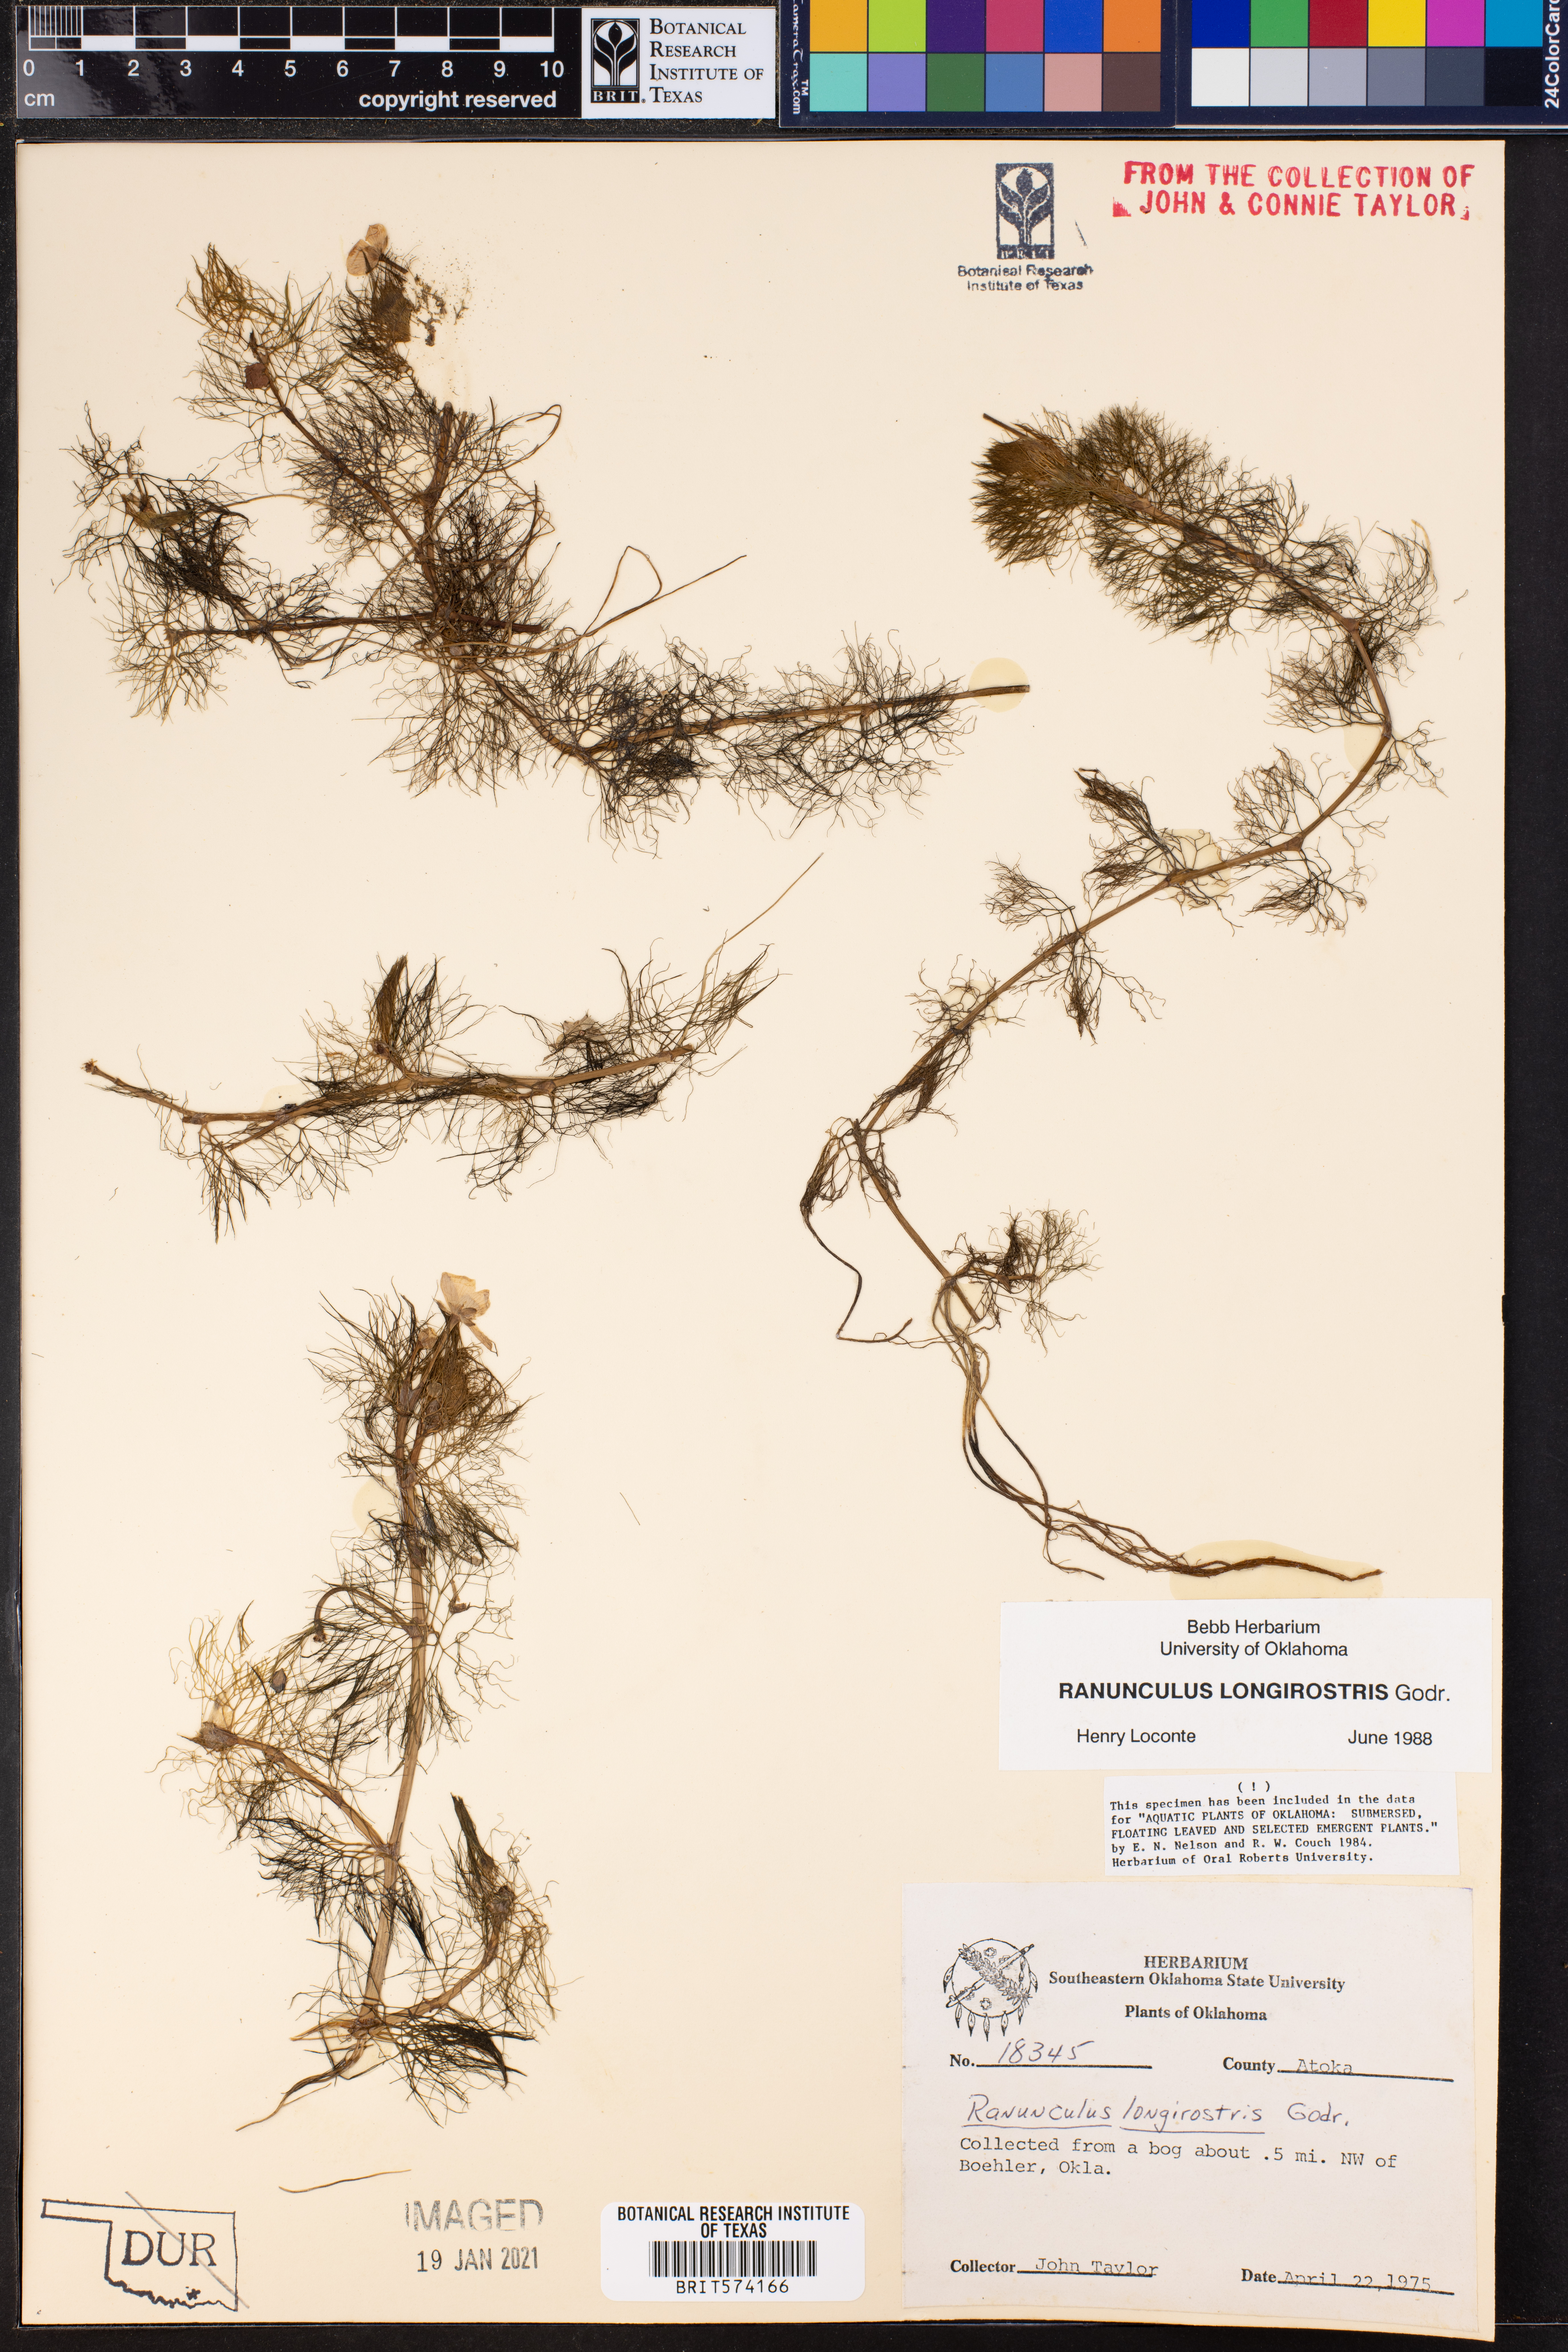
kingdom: Plantae
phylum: Tracheophyta
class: Magnoliopsida
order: Ranunculales
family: Ranunculaceae
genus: Ranunculus
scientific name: Ranunculus longirostris
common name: Curly white water-crowfoot
